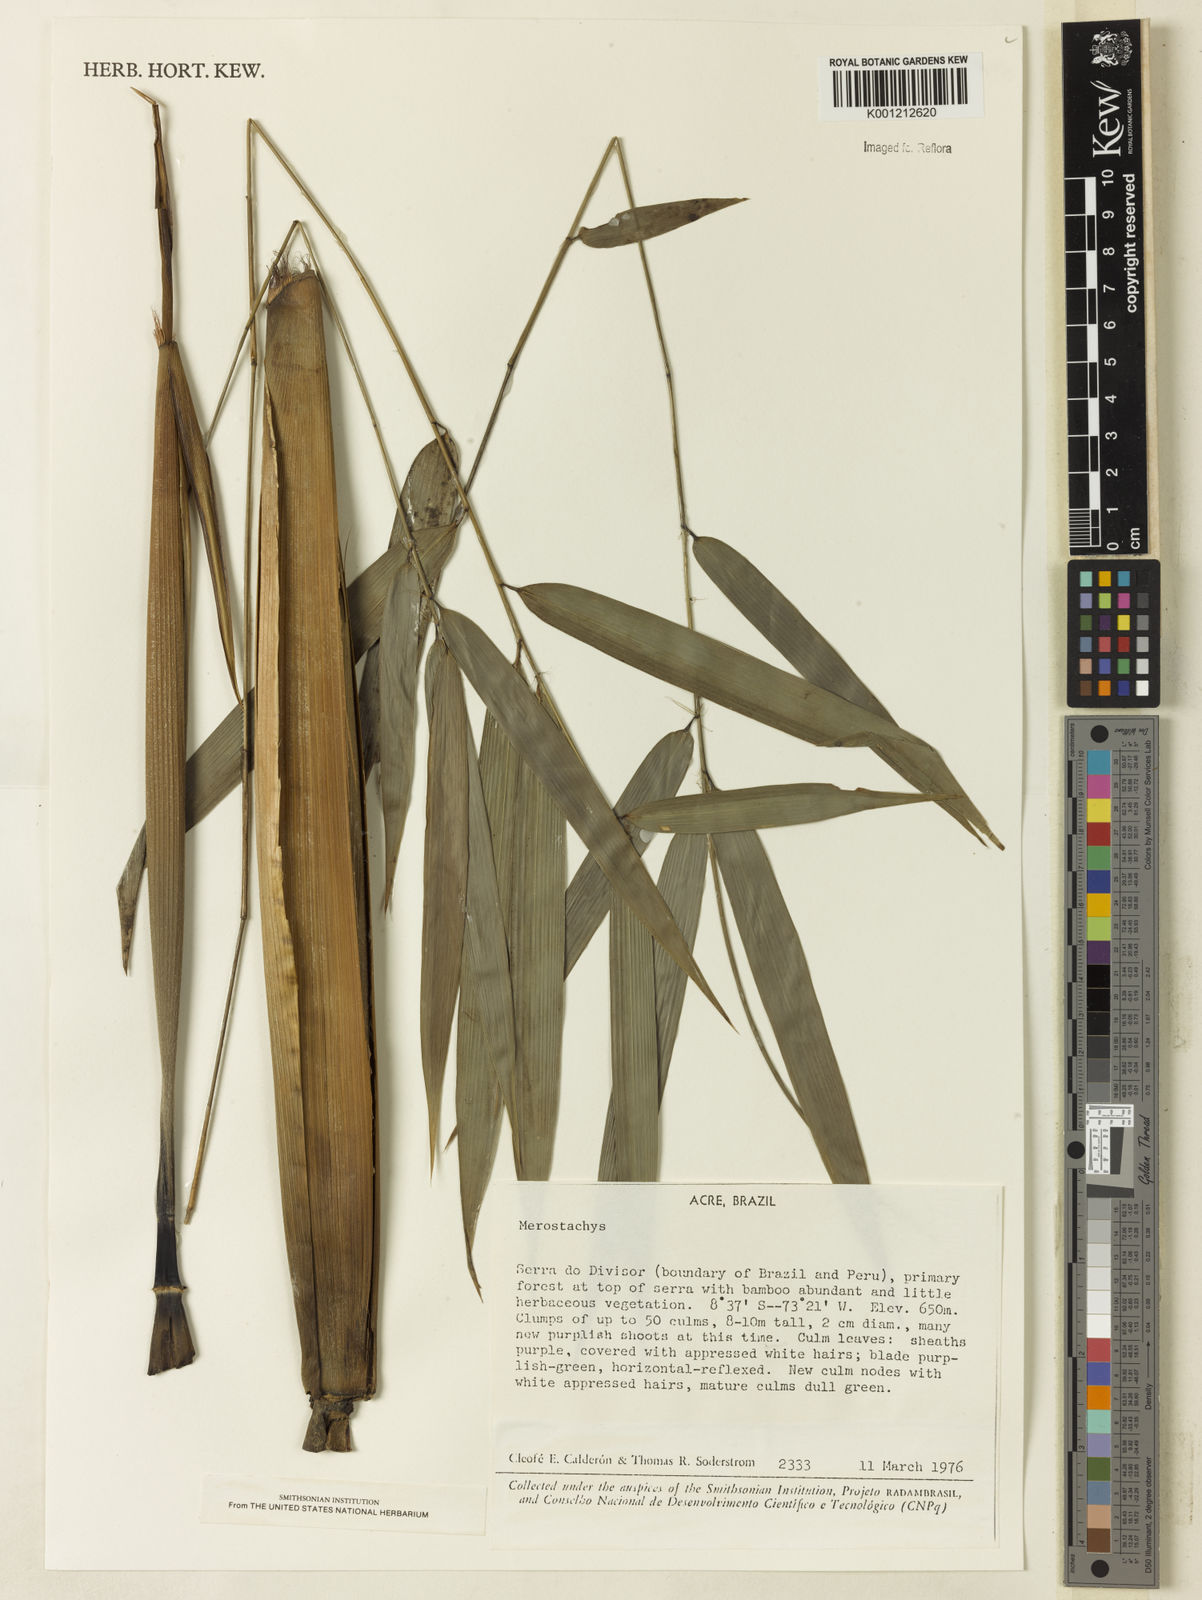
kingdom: Plantae
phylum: Tracheophyta
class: Liliopsida
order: Poales
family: Poaceae
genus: Merostachys
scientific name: Merostachys
